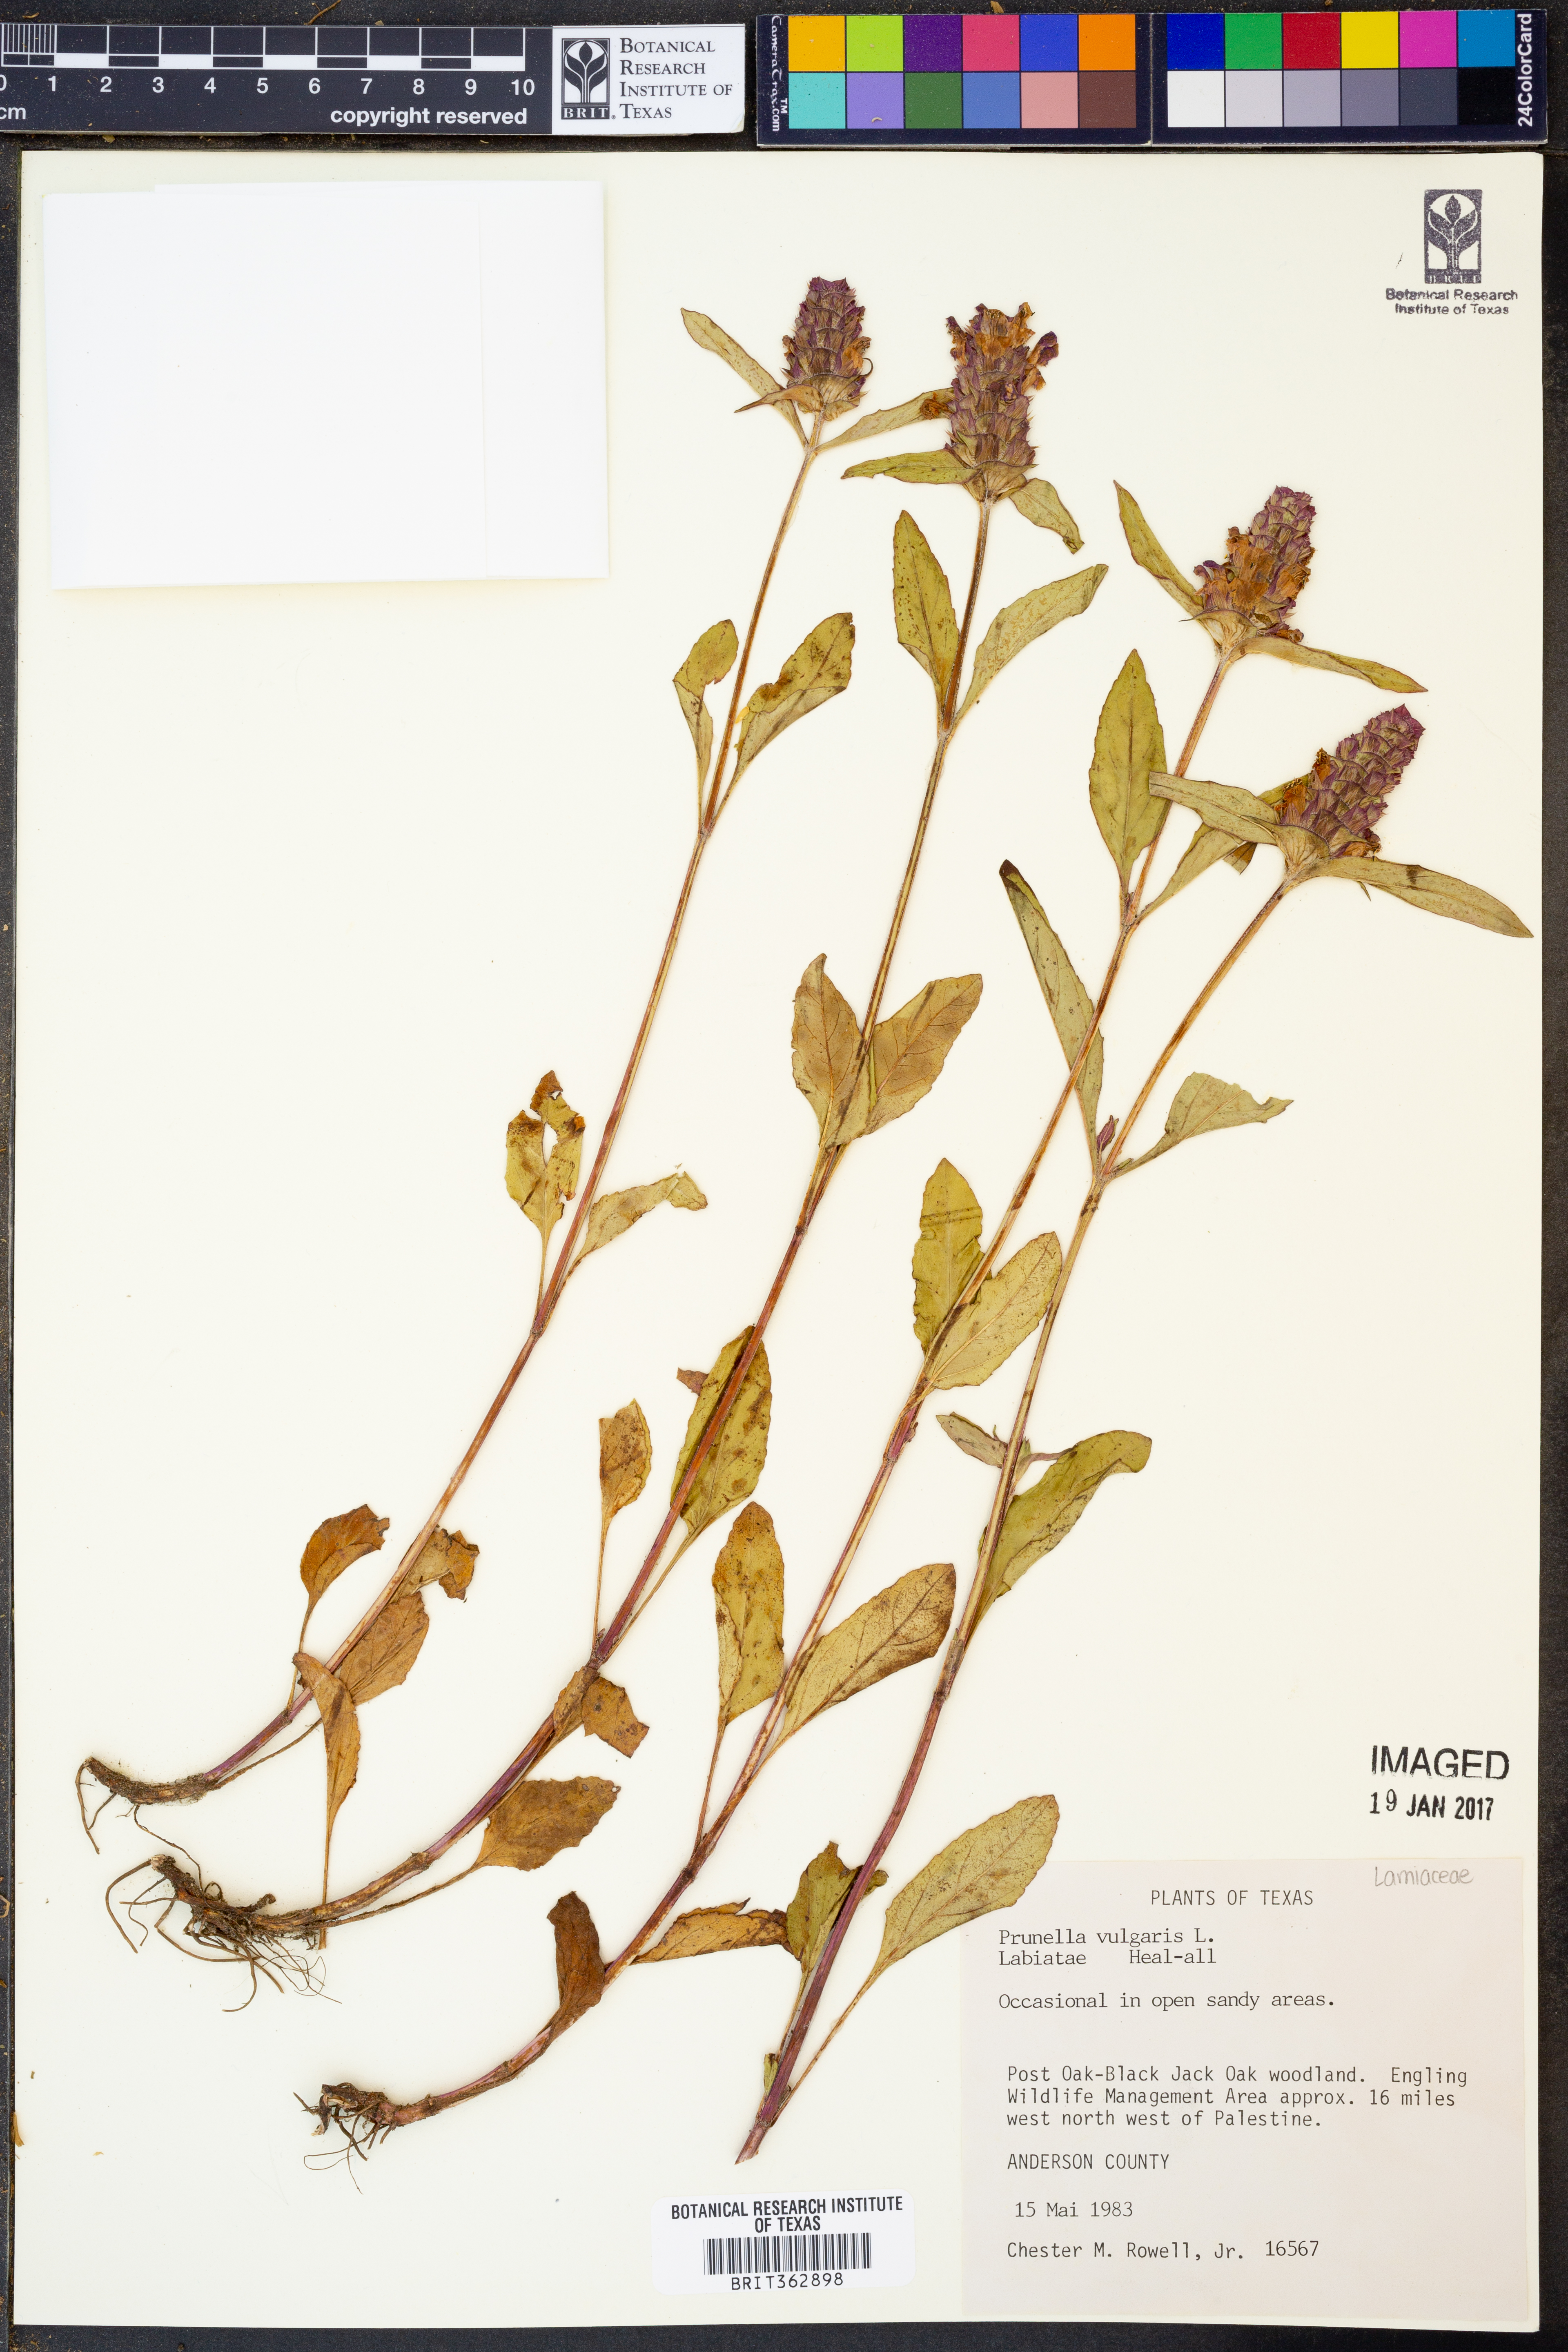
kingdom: Plantae
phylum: Tracheophyta
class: Magnoliopsida
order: Lamiales
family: Lamiaceae
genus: Prunella
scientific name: Prunella vulgaris
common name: Heal-all
